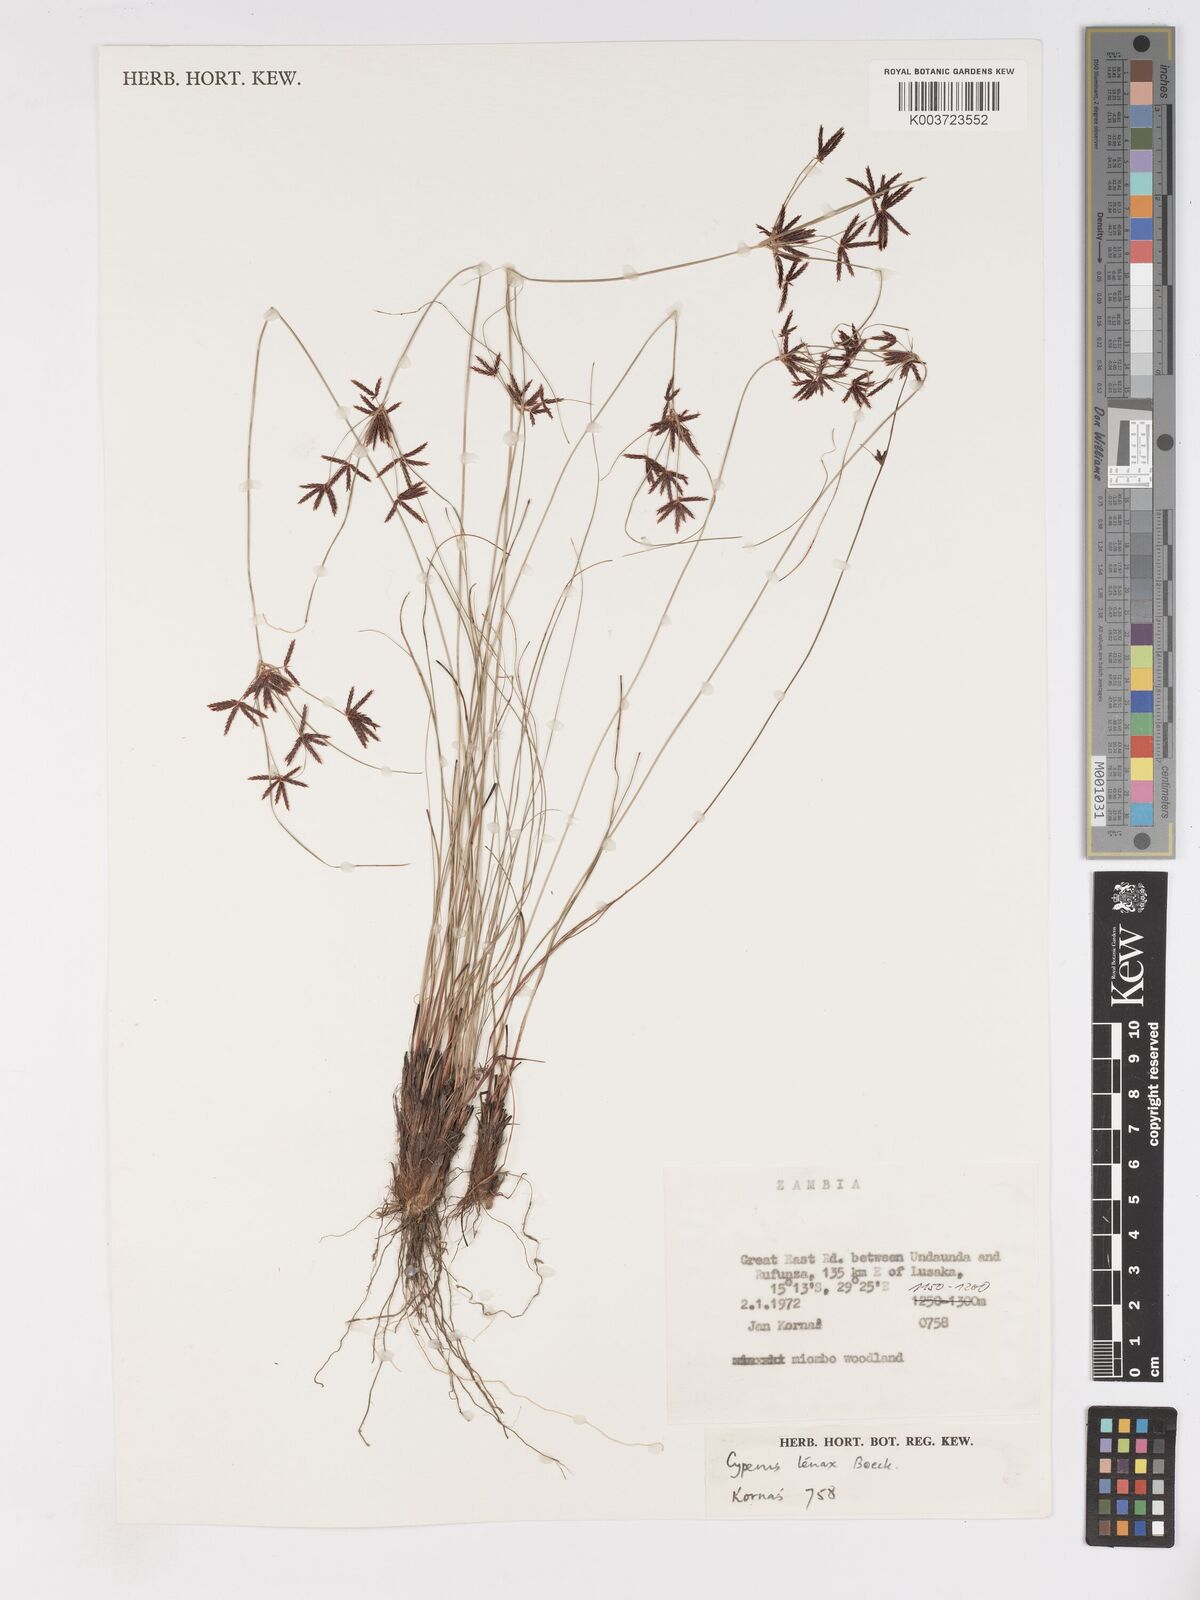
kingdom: Plantae
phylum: Tracheophyta
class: Liliopsida
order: Poales
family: Cyperaceae
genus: Cyperus
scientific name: Cyperus tenax
